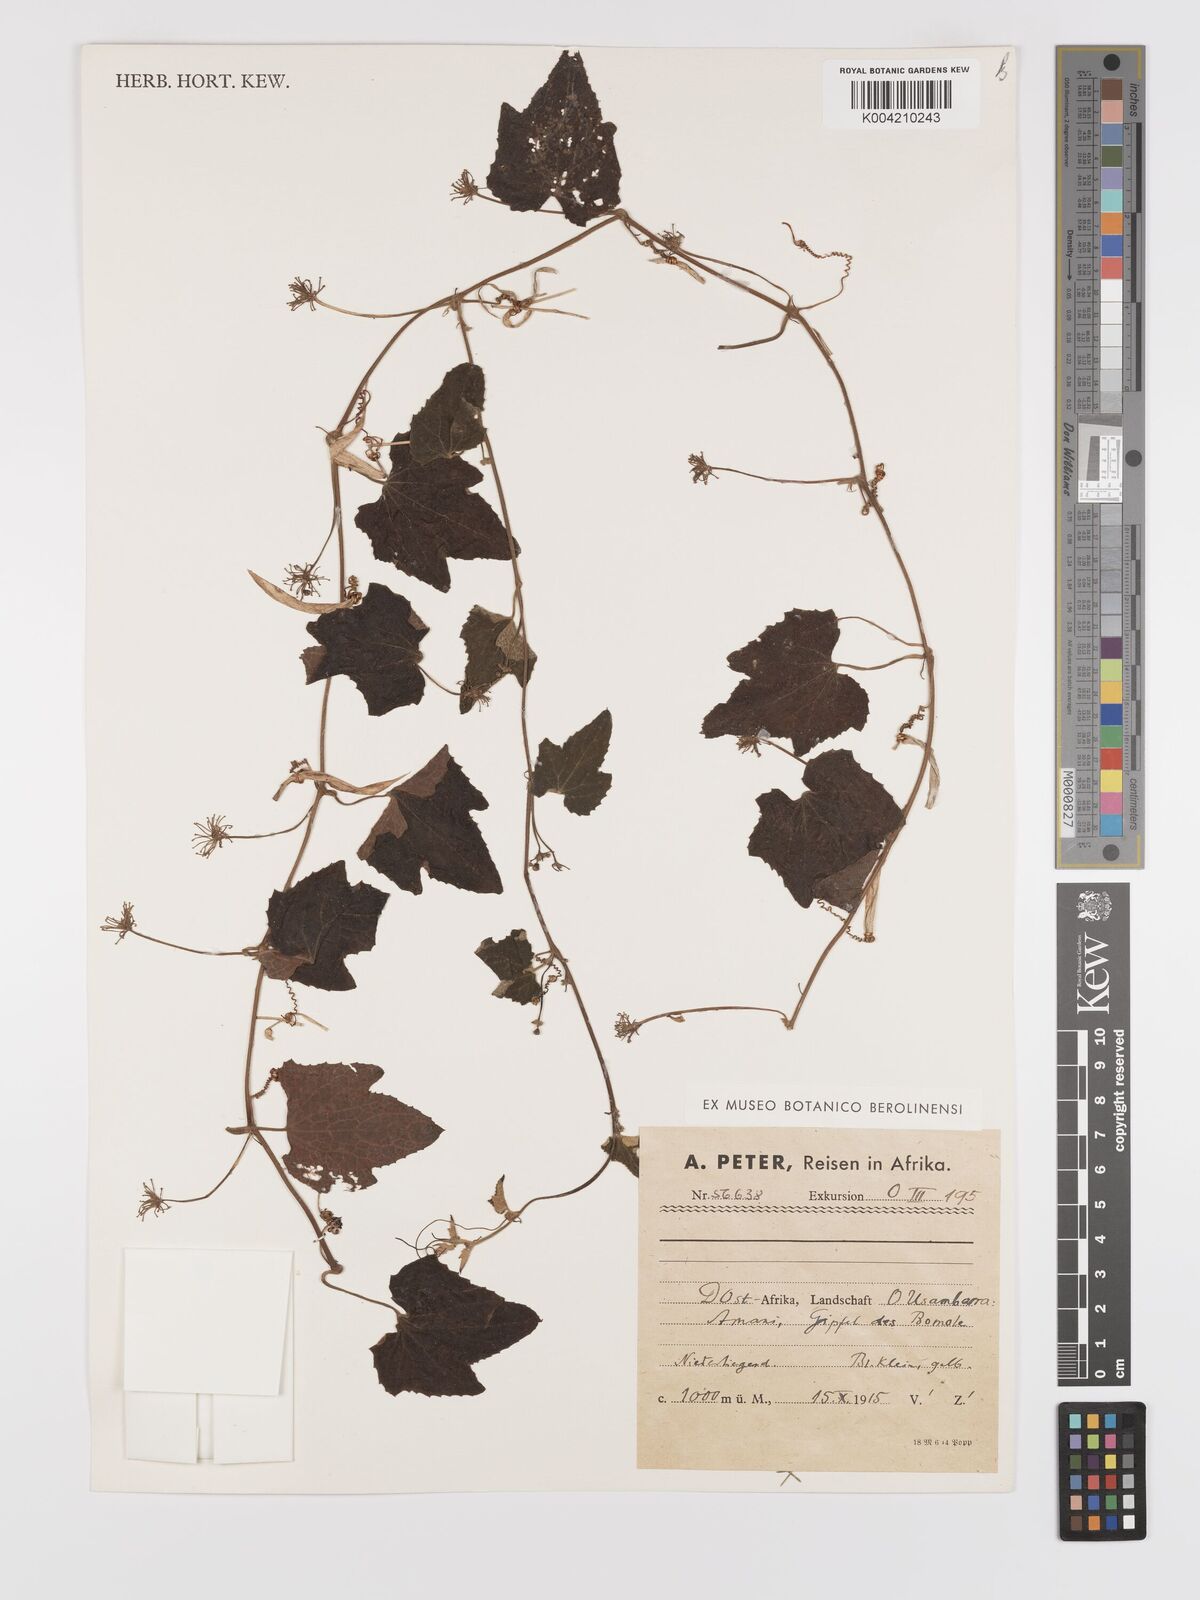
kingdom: Plantae
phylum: Tracheophyta
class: Magnoliopsida
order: Cucurbitales
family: Cucurbitaceae
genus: Zehneria
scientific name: Zehneria scabra
